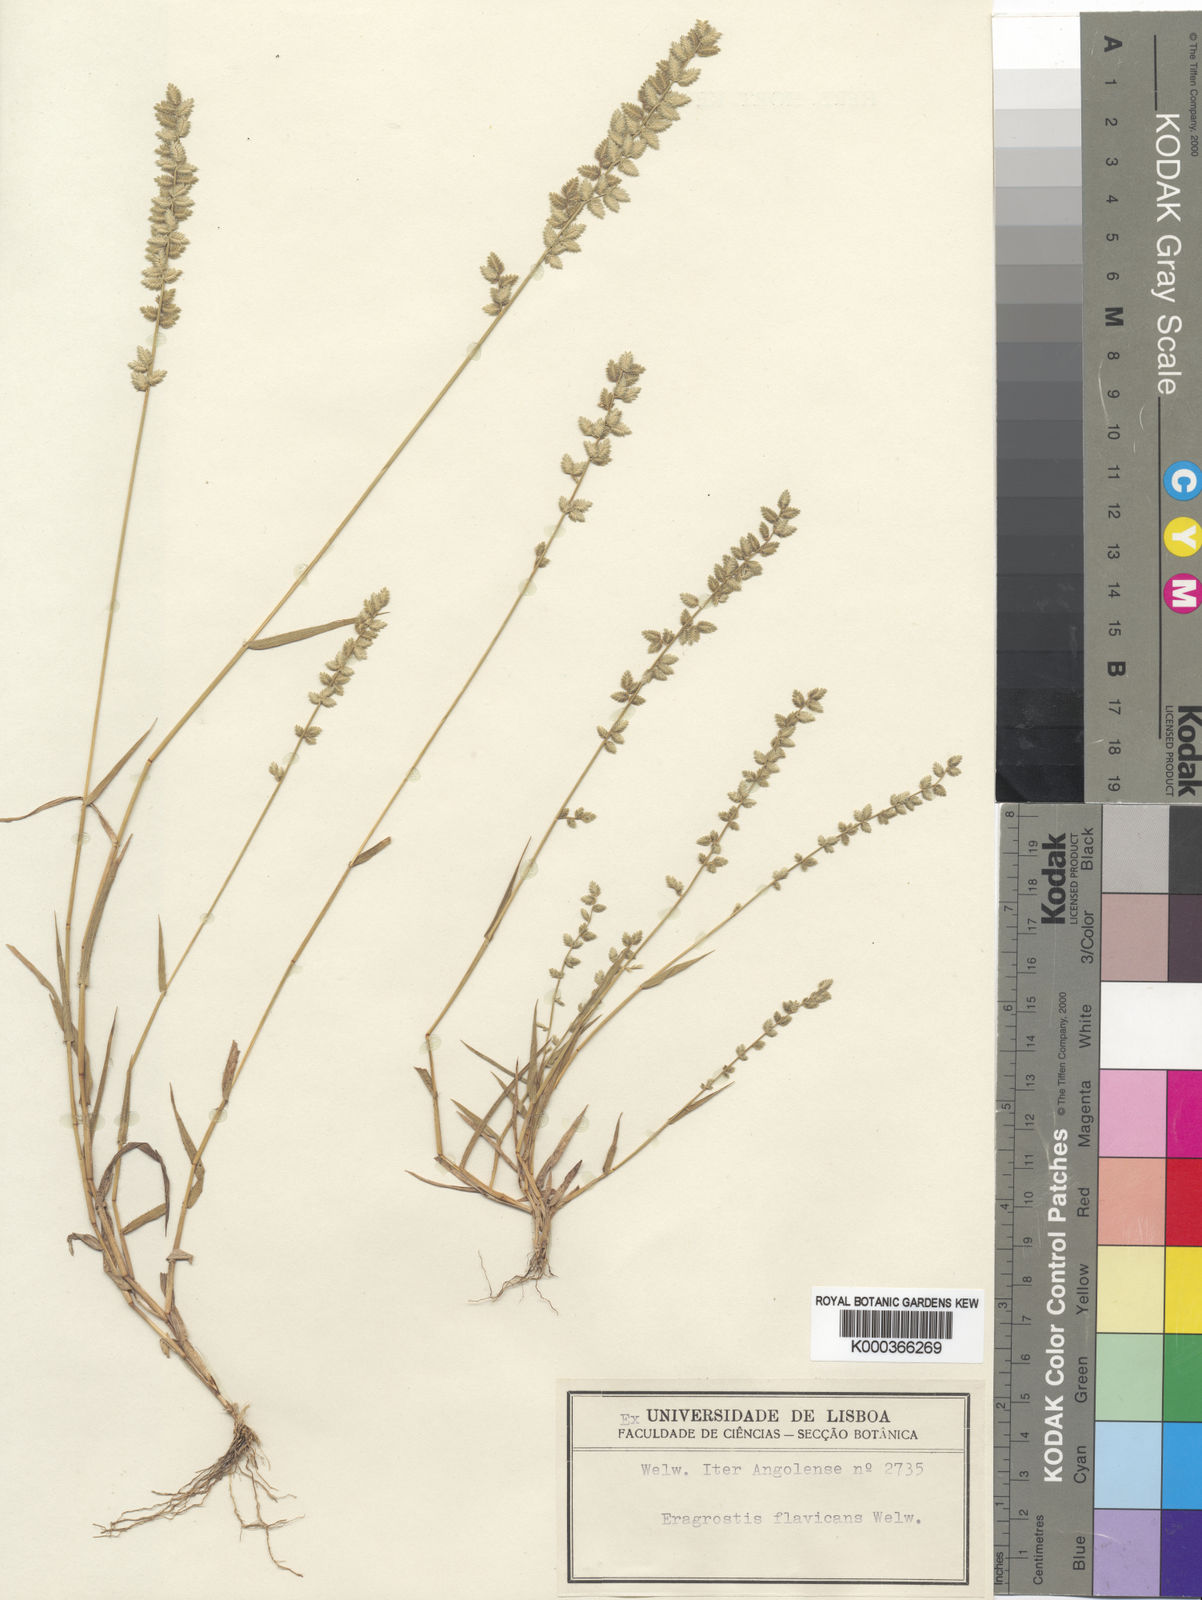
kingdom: Plantae
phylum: Tracheophyta
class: Liliopsida
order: Poales
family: Poaceae
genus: Eragrostis
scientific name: Eragrostis flavicans
